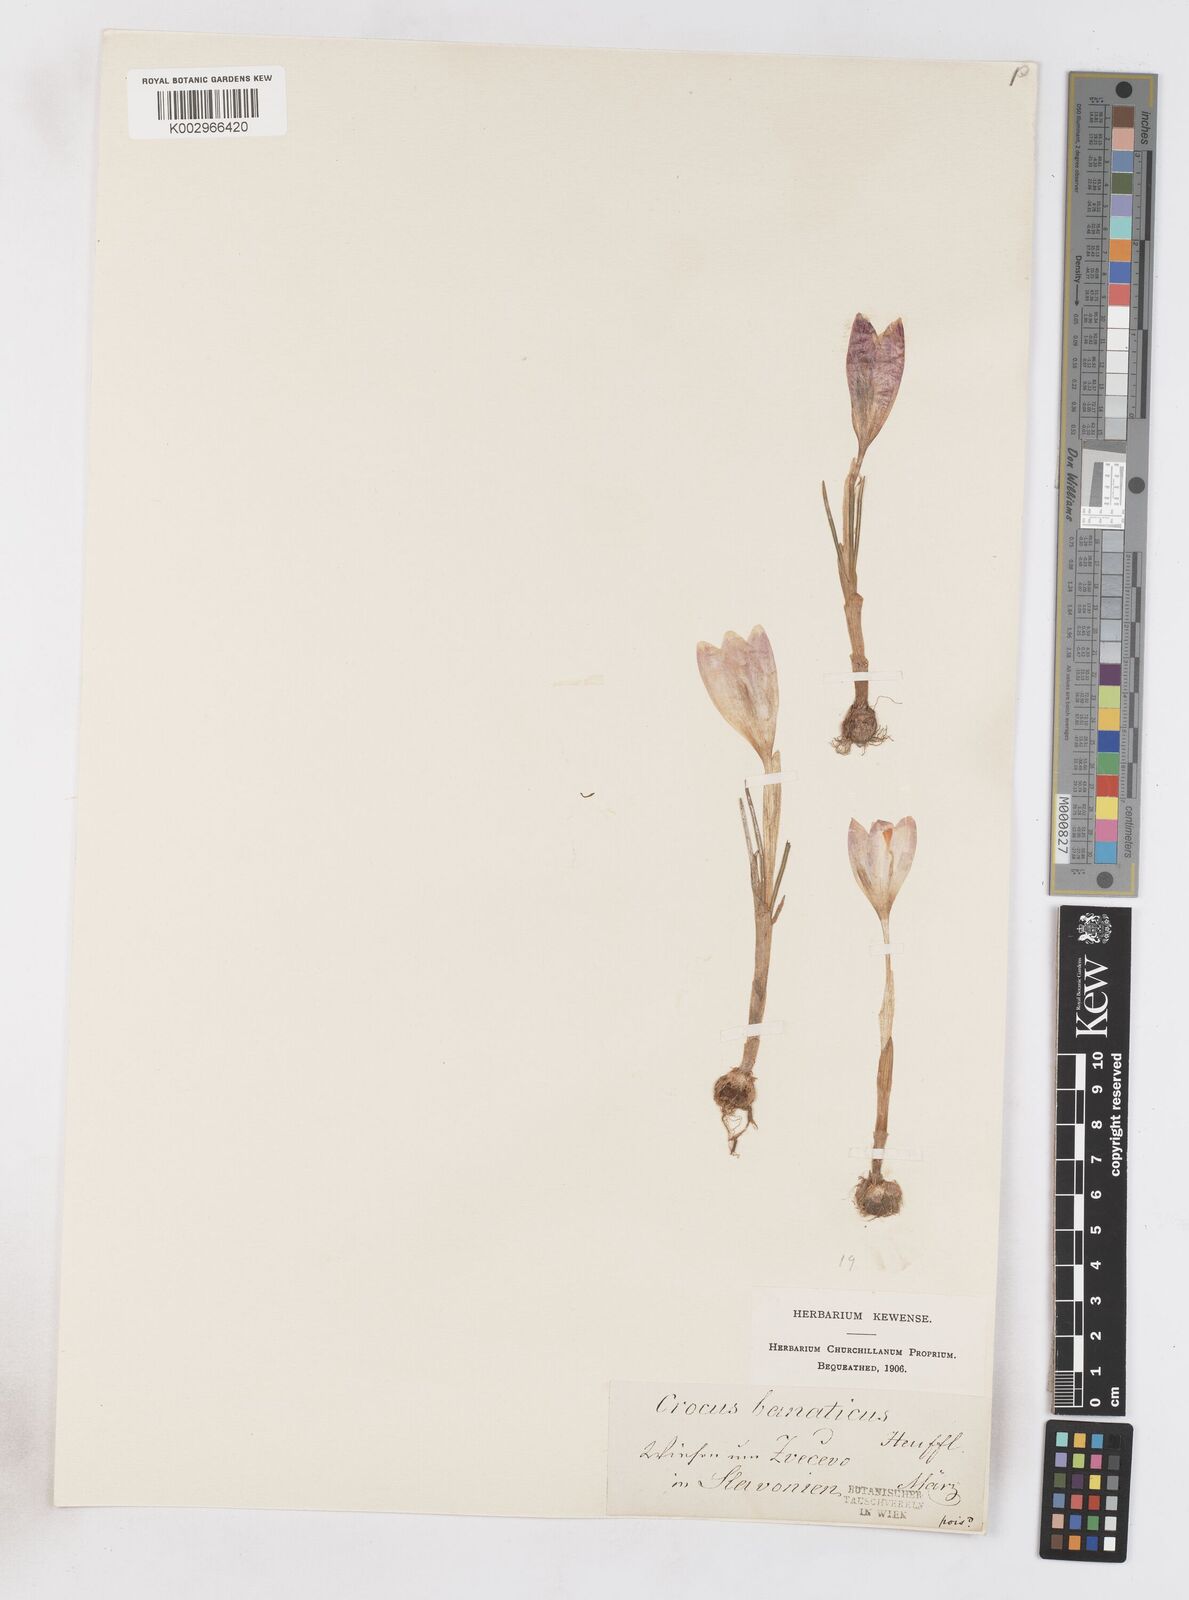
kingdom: Plantae
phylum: Tracheophyta
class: Liliopsida
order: Asparagales
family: Iridaceae
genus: Crocus
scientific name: Crocus vernus
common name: Spring crocus
